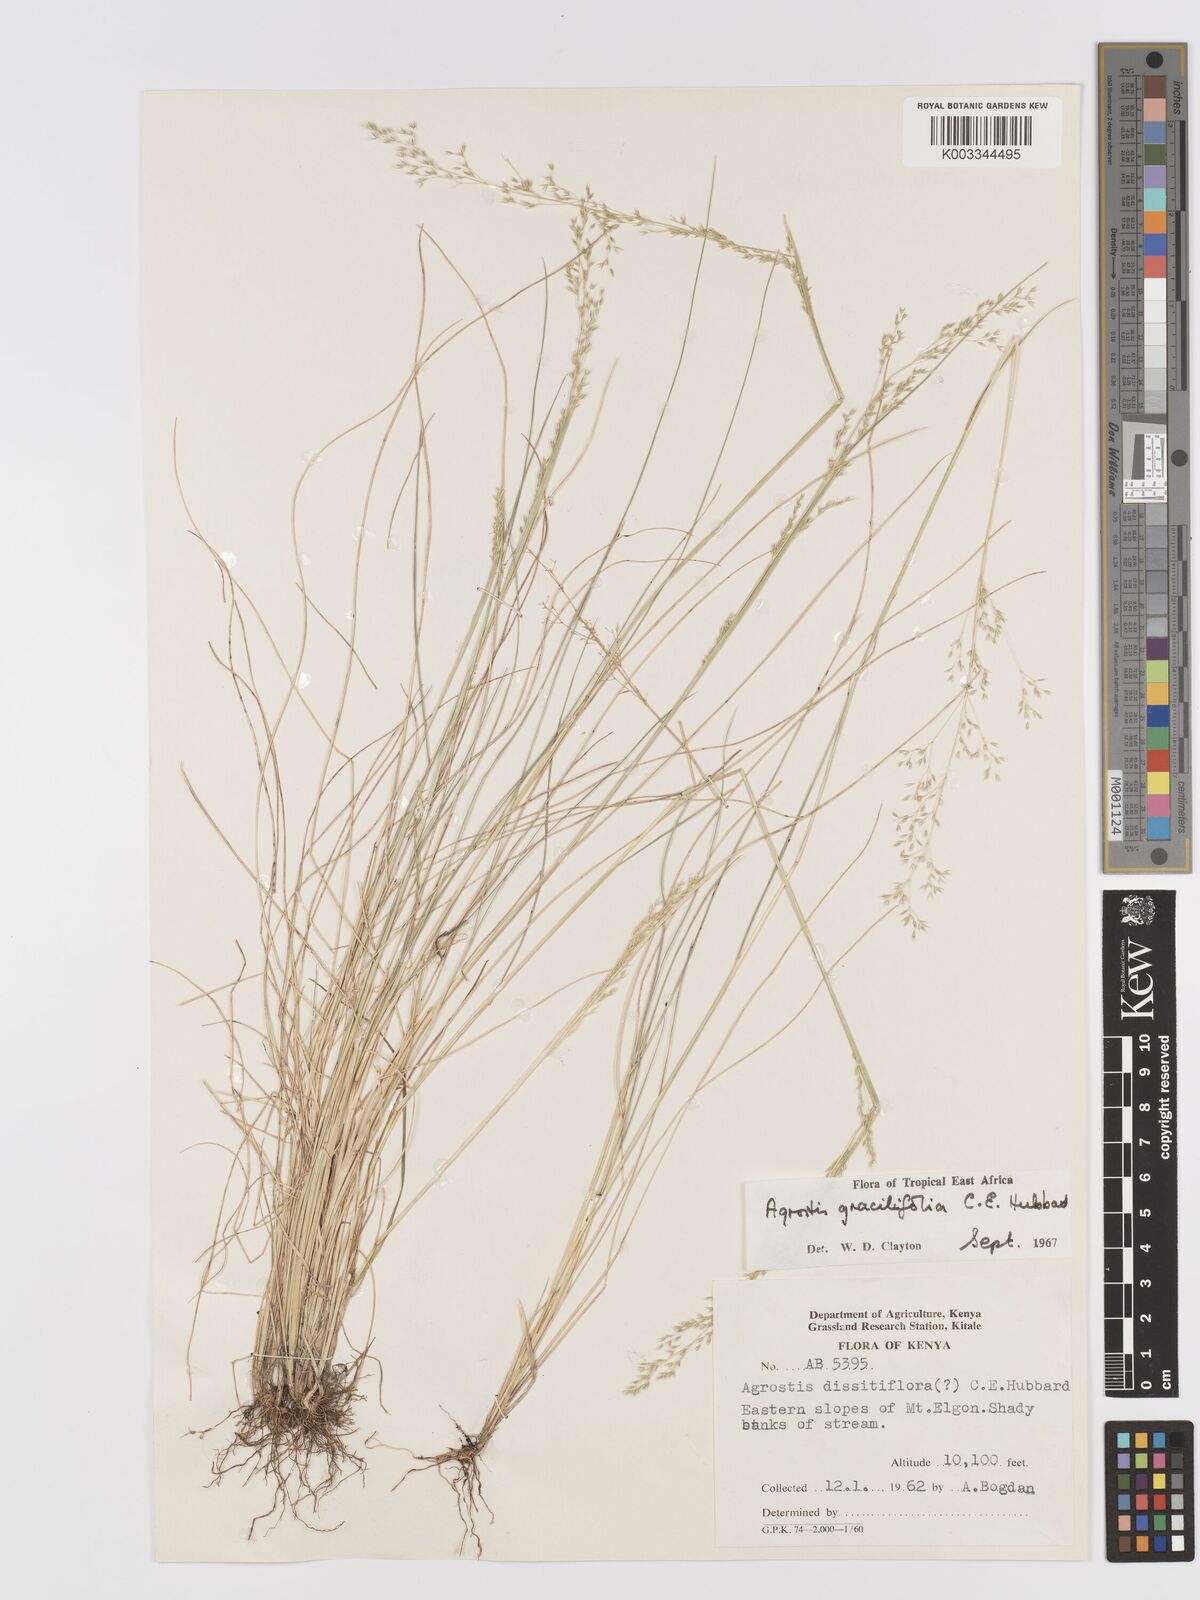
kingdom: Plantae
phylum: Tracheophyta
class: Liliopsida
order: Poales
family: Poaceae
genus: Agrostis
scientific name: Agrostis gracilifolia
